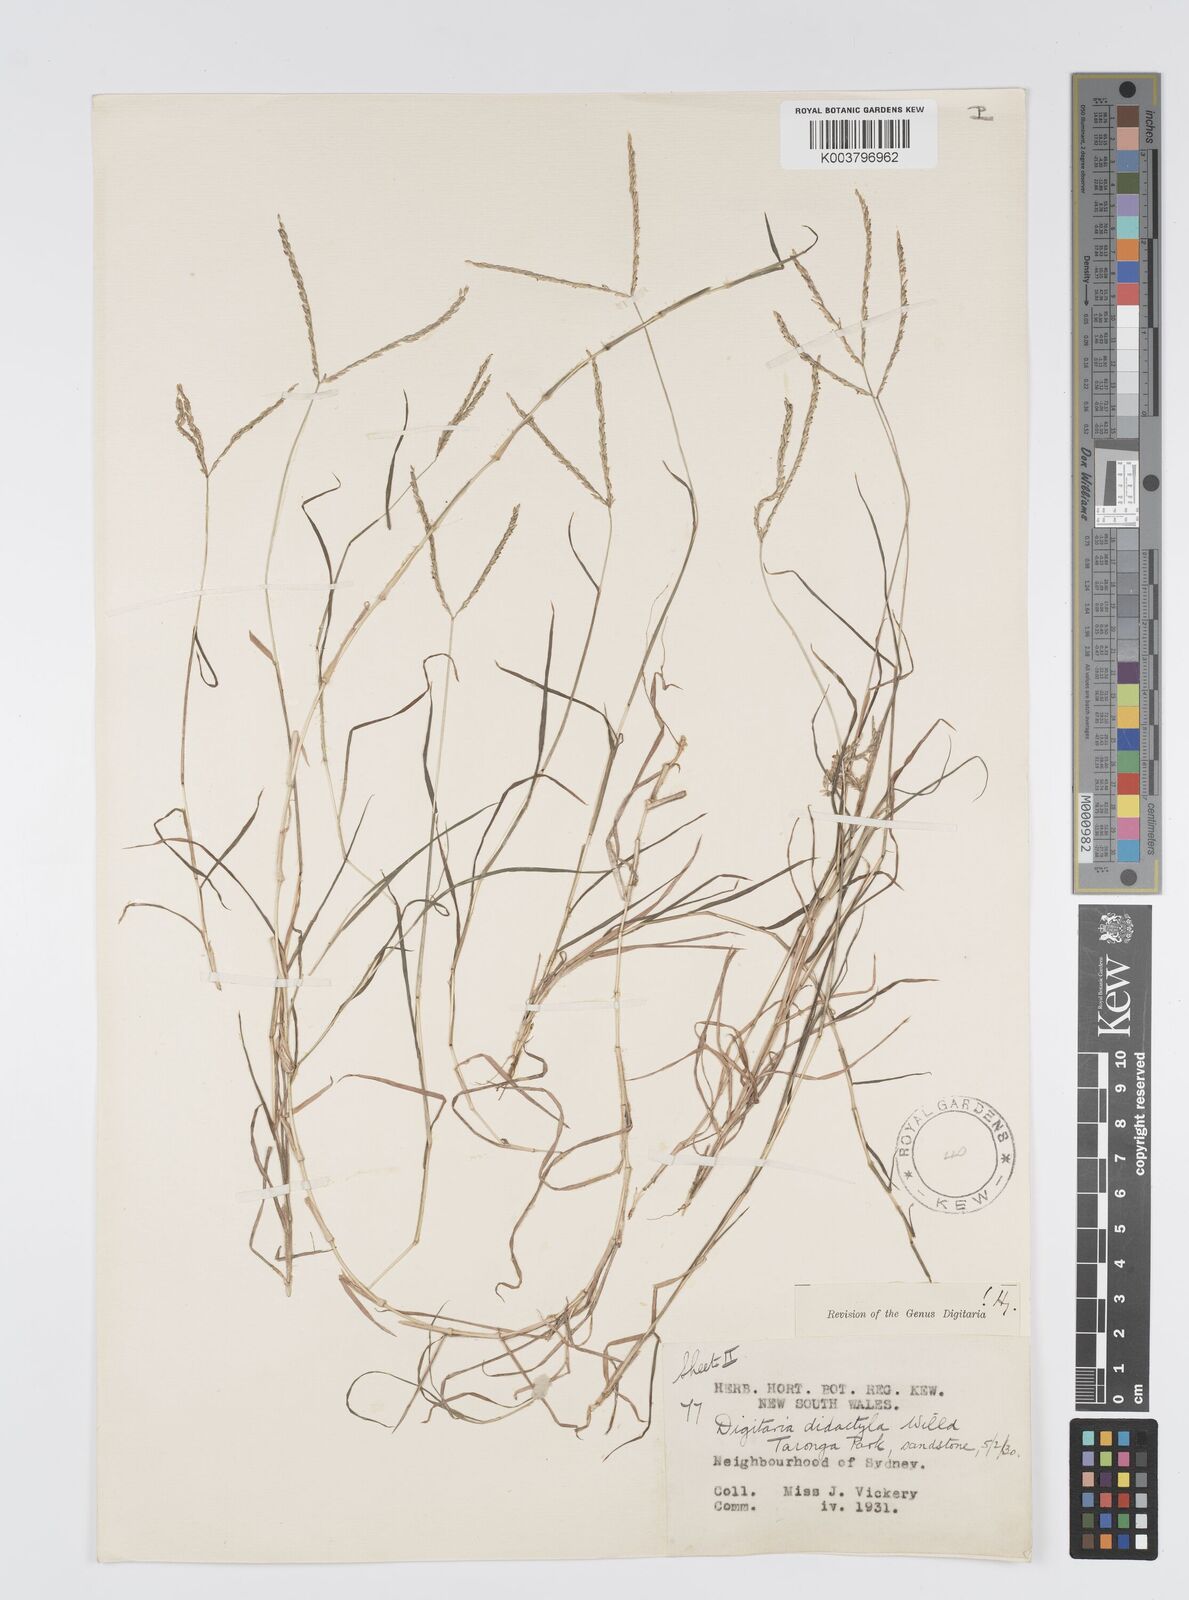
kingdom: Plantae
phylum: Tracheophyta
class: Liliopsida
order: Poales
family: Poaceae
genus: Digitaria
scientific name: Digitaria didactyla
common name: Blue couch
